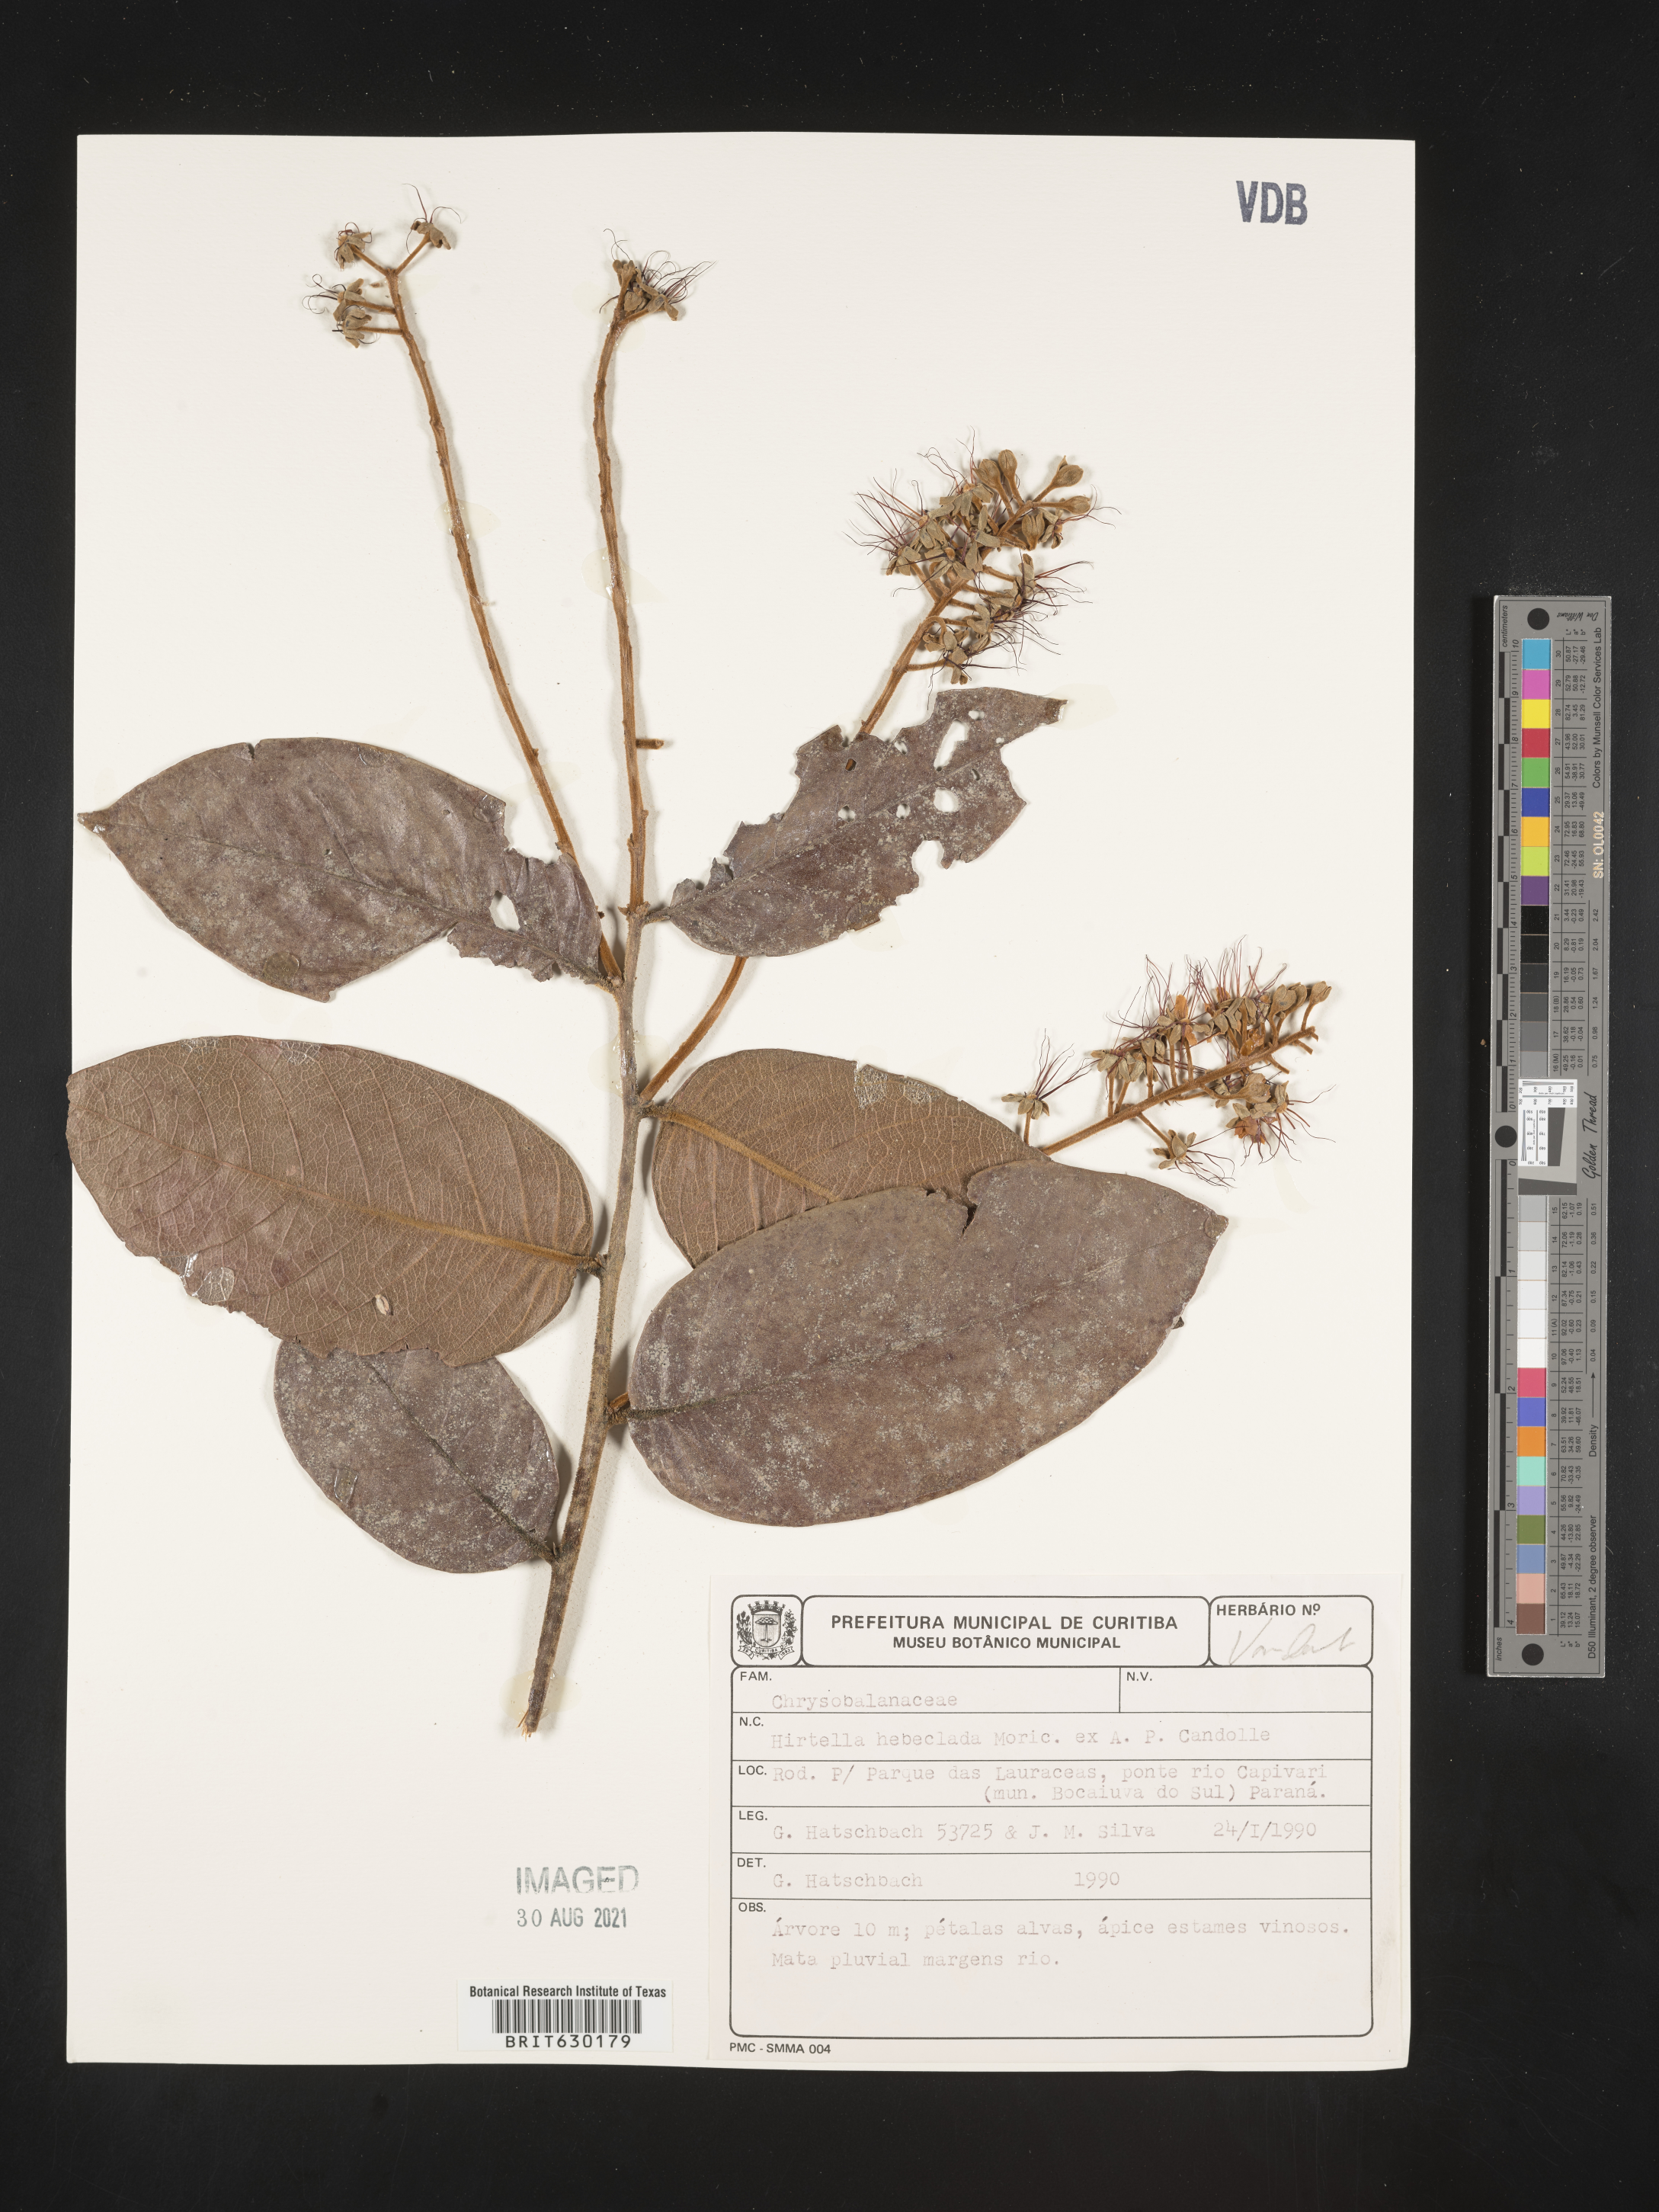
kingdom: Plantae
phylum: Tracheophyta
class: Magnoliopsida
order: Malpighiales
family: Chrysobalanaceae
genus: Hirtella
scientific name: Hirtella hebeclada
